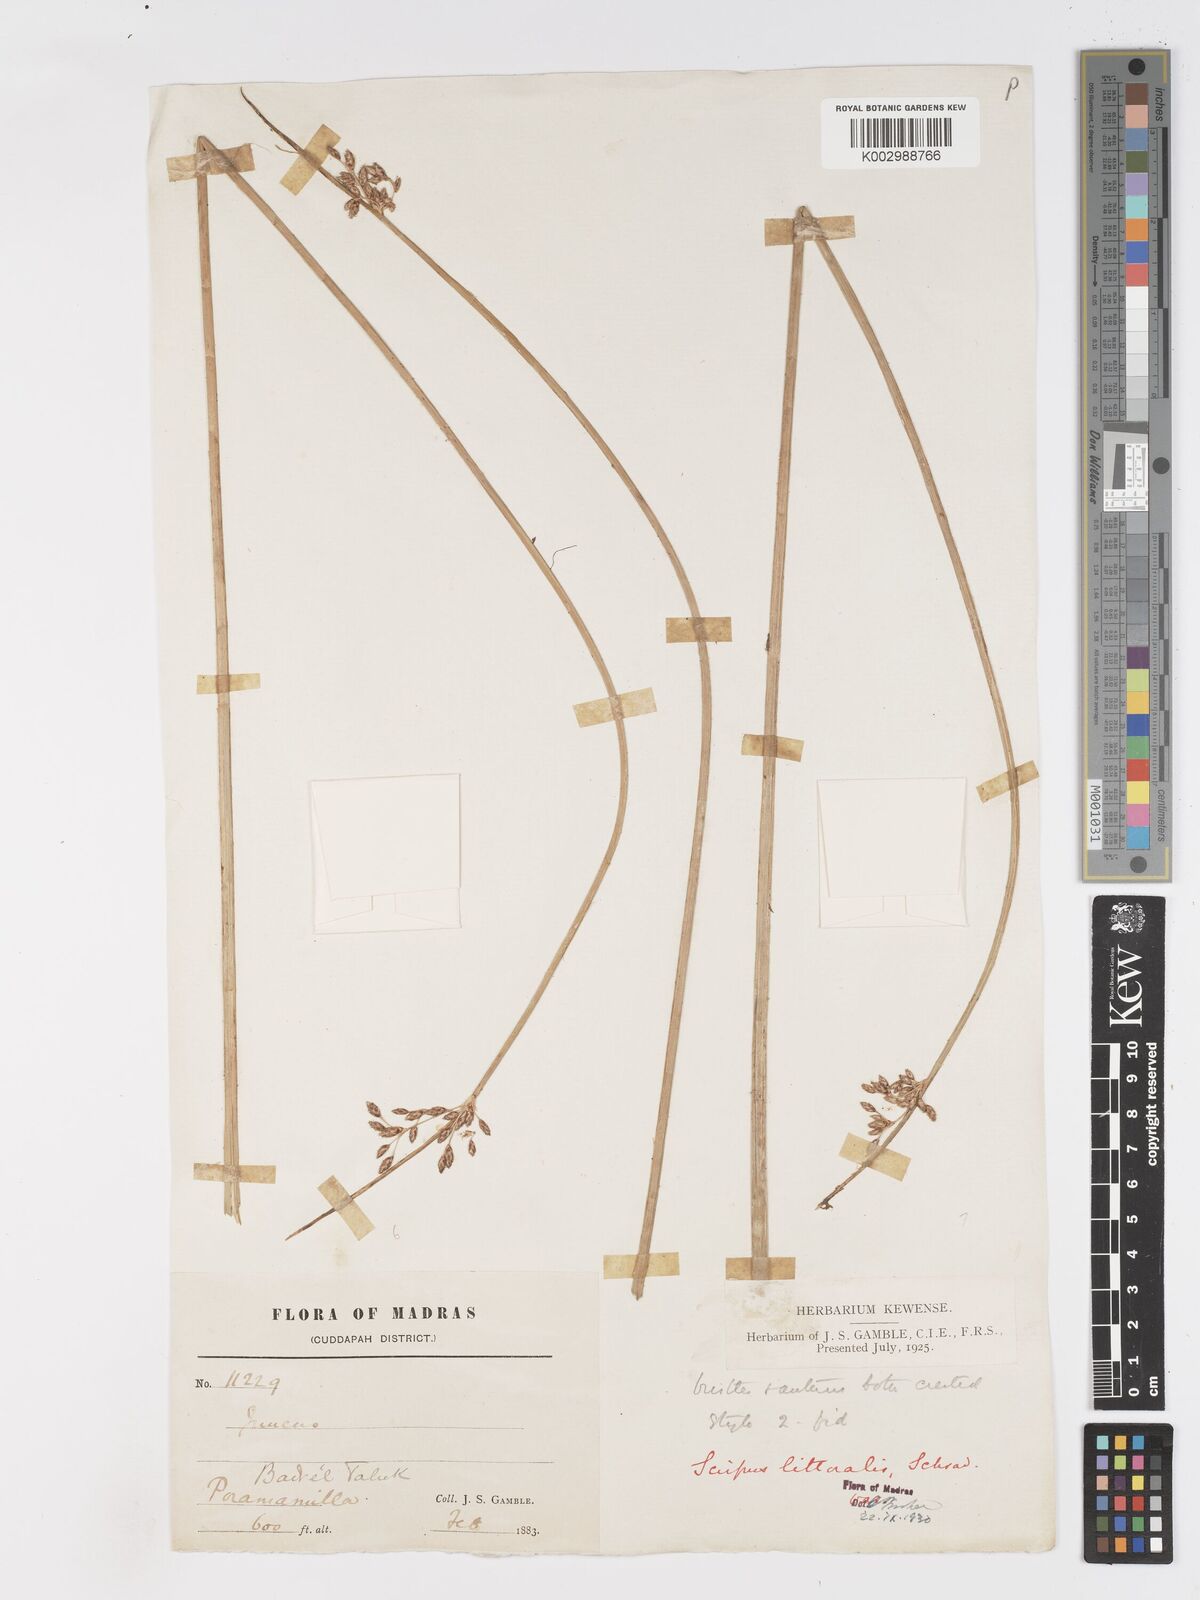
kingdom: Plantae
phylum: Tracheophyta
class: Liliopsida
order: Poales
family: Cyperaceae
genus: Schoenoplectus
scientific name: Schoenoplectus litoralis
